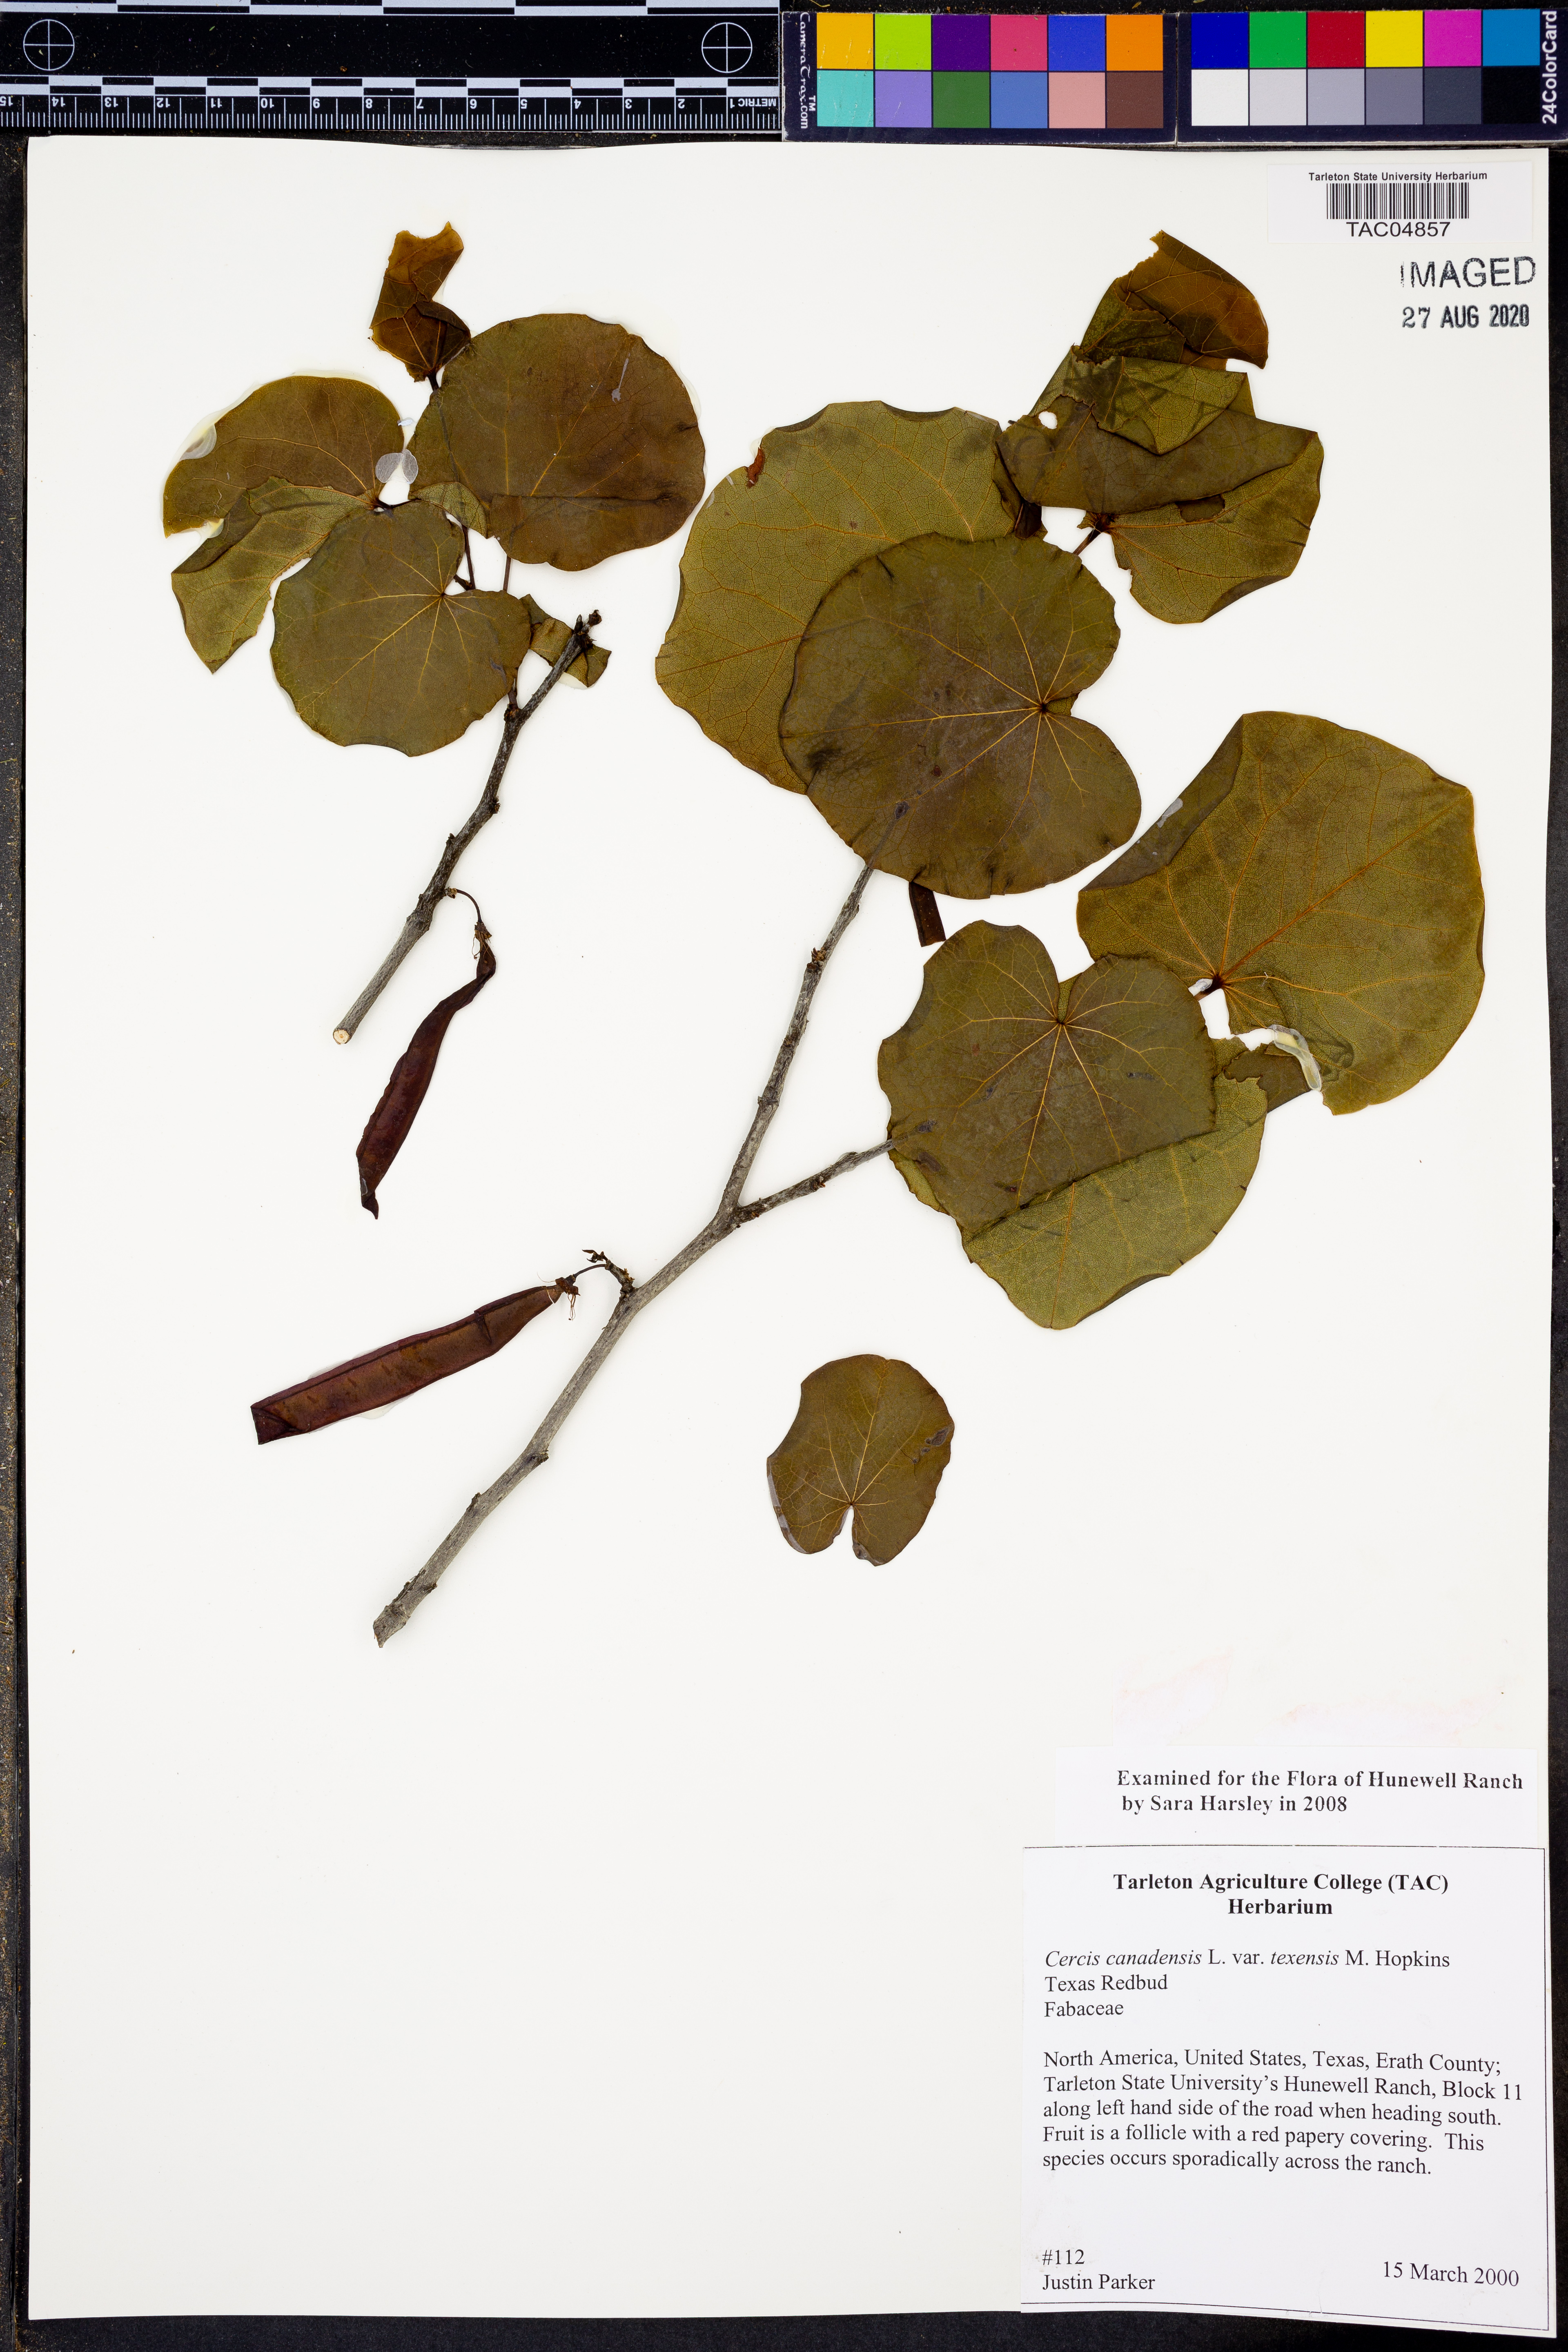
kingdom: Plantae
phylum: Tracheophyta
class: Magnoliopsida
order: Fabales
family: Fabaceae
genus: Cercis
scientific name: Cercis canadensis
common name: Eastern redbud
